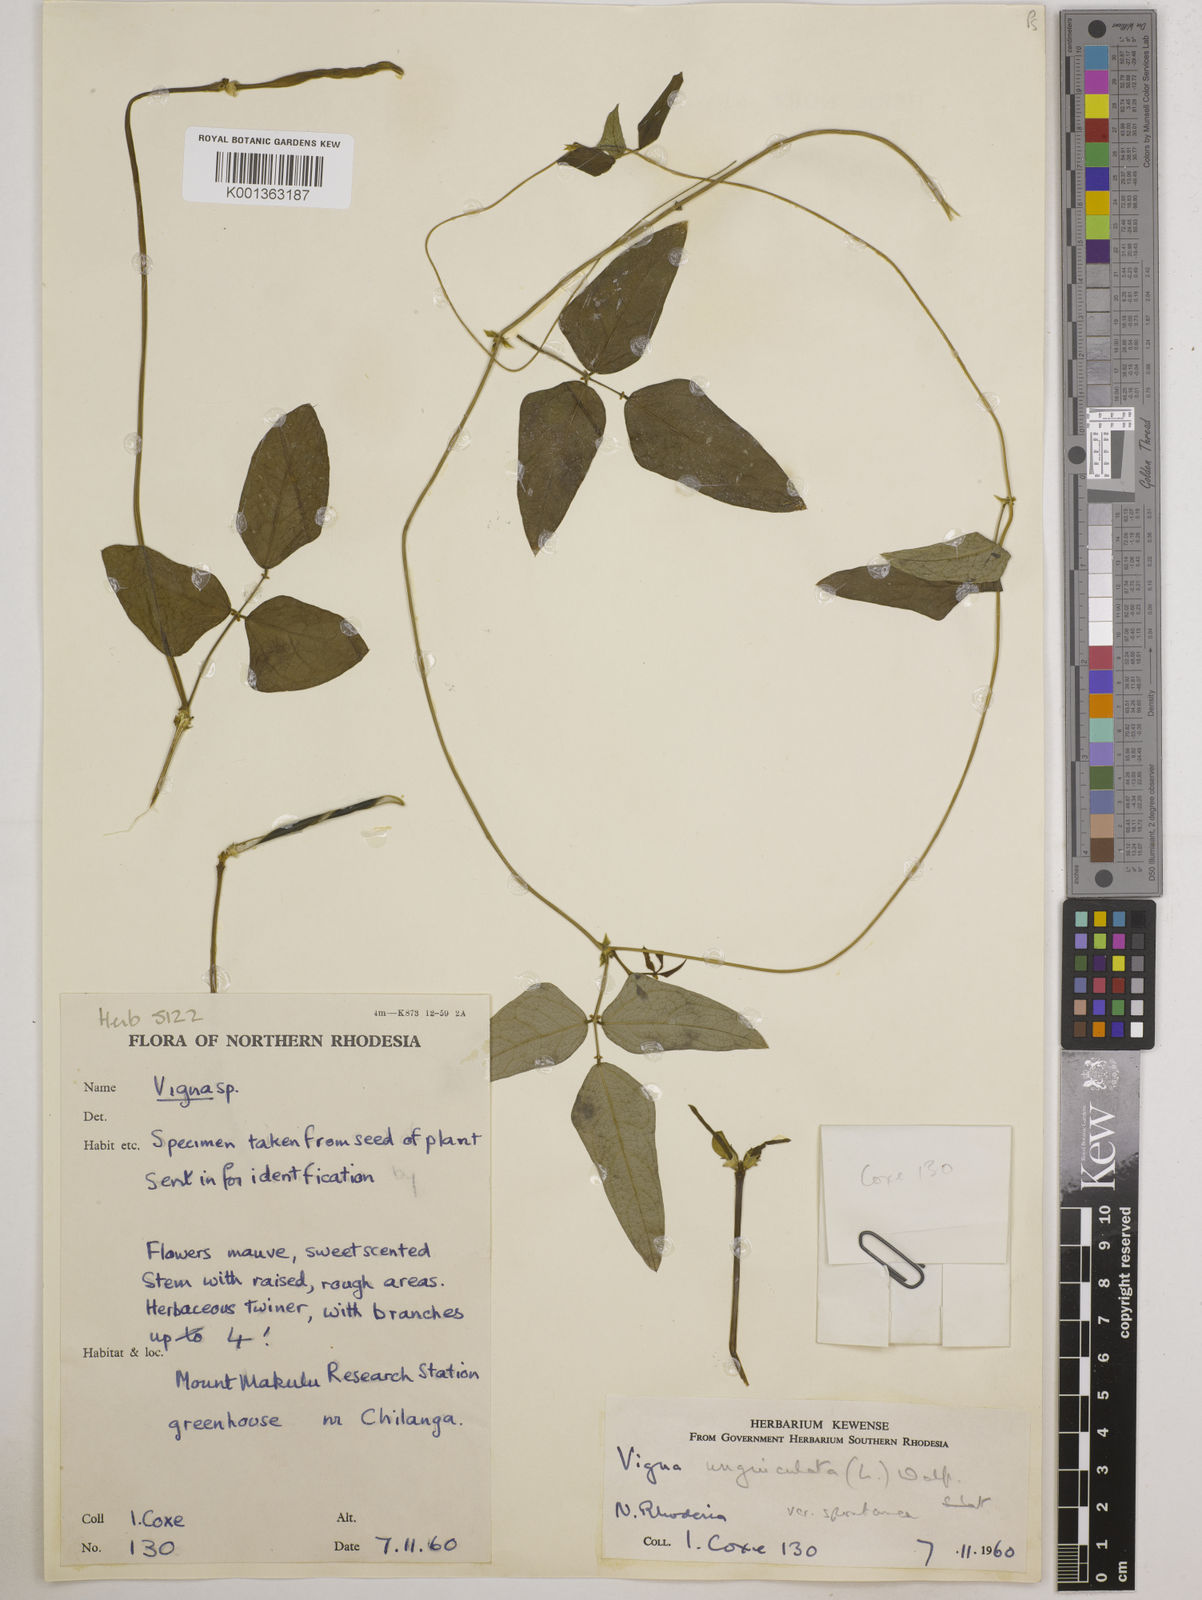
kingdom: Plantae
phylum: Tracheophyta
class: Magnoliopsida
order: Fabales
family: Fabaceae
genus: Vigna
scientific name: Vigna unguiculata
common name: Cowpea
